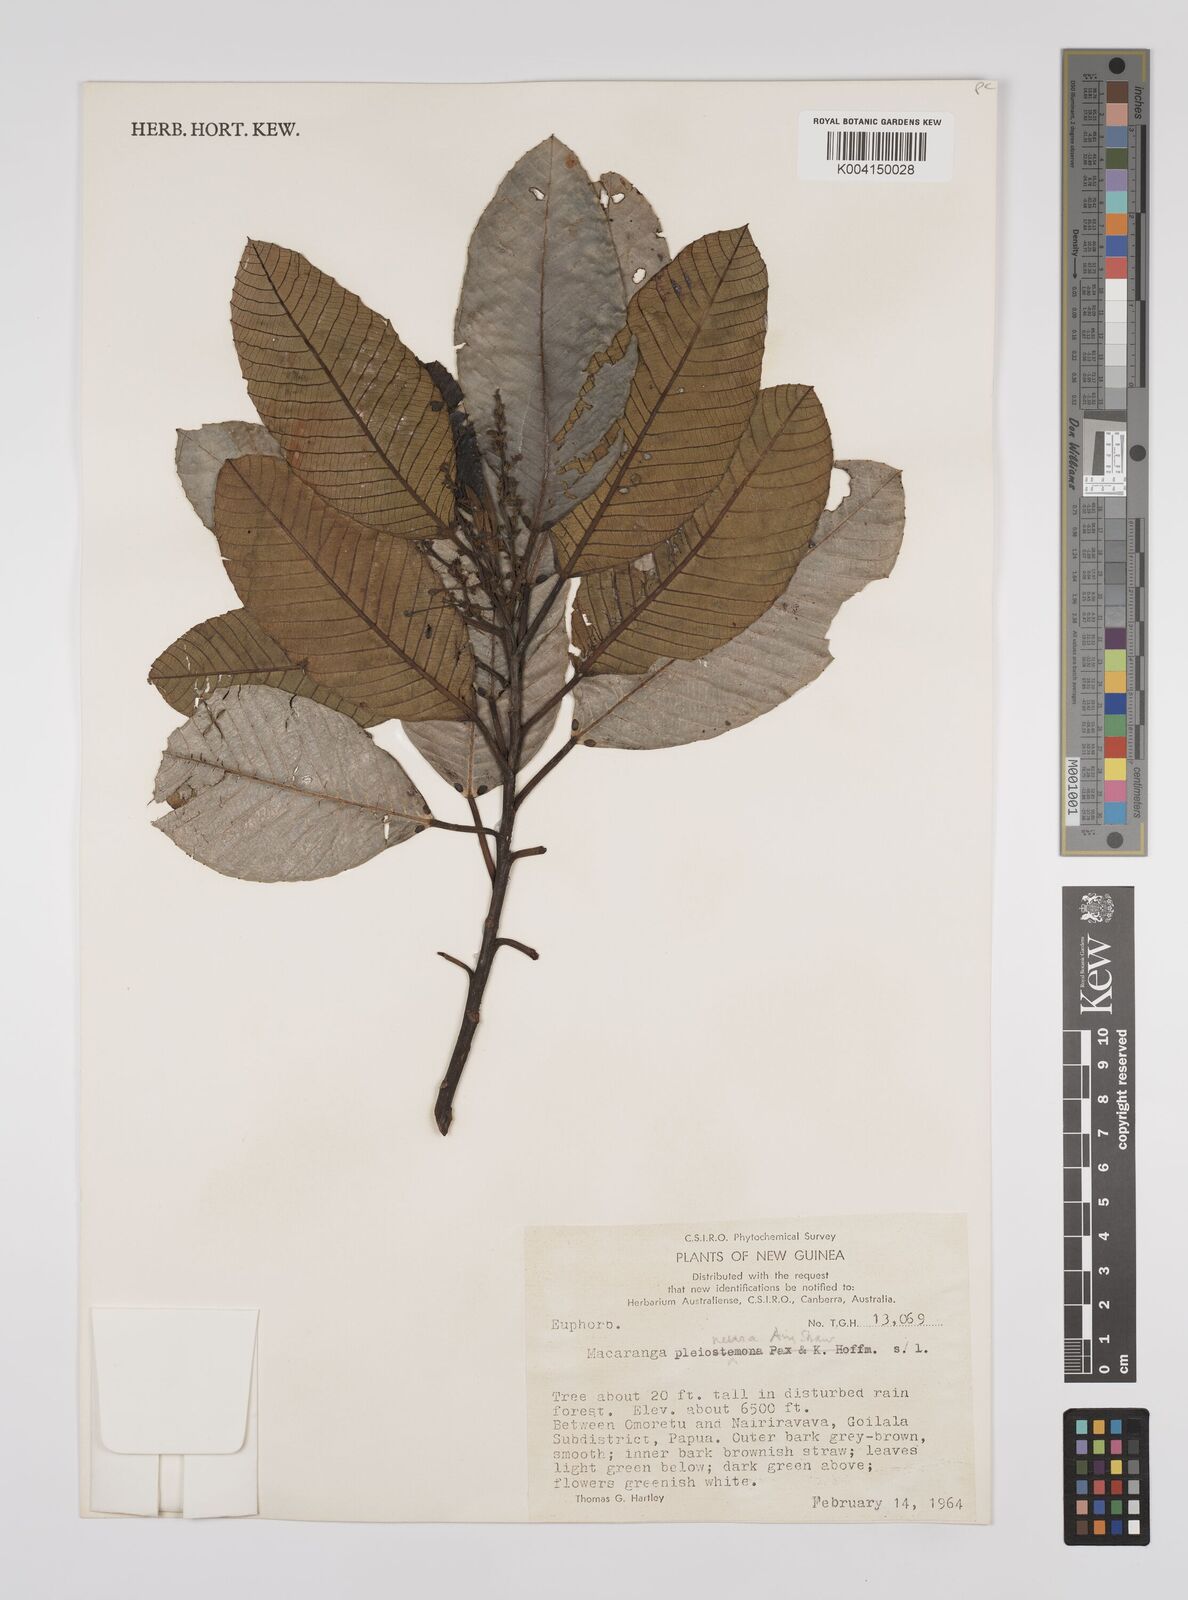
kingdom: Plantae
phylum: Tracheophyta
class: Magnoliopsida
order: Malpighiales
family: Euphorbiaceae
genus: Macaranga
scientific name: Macaranga pleioneura
